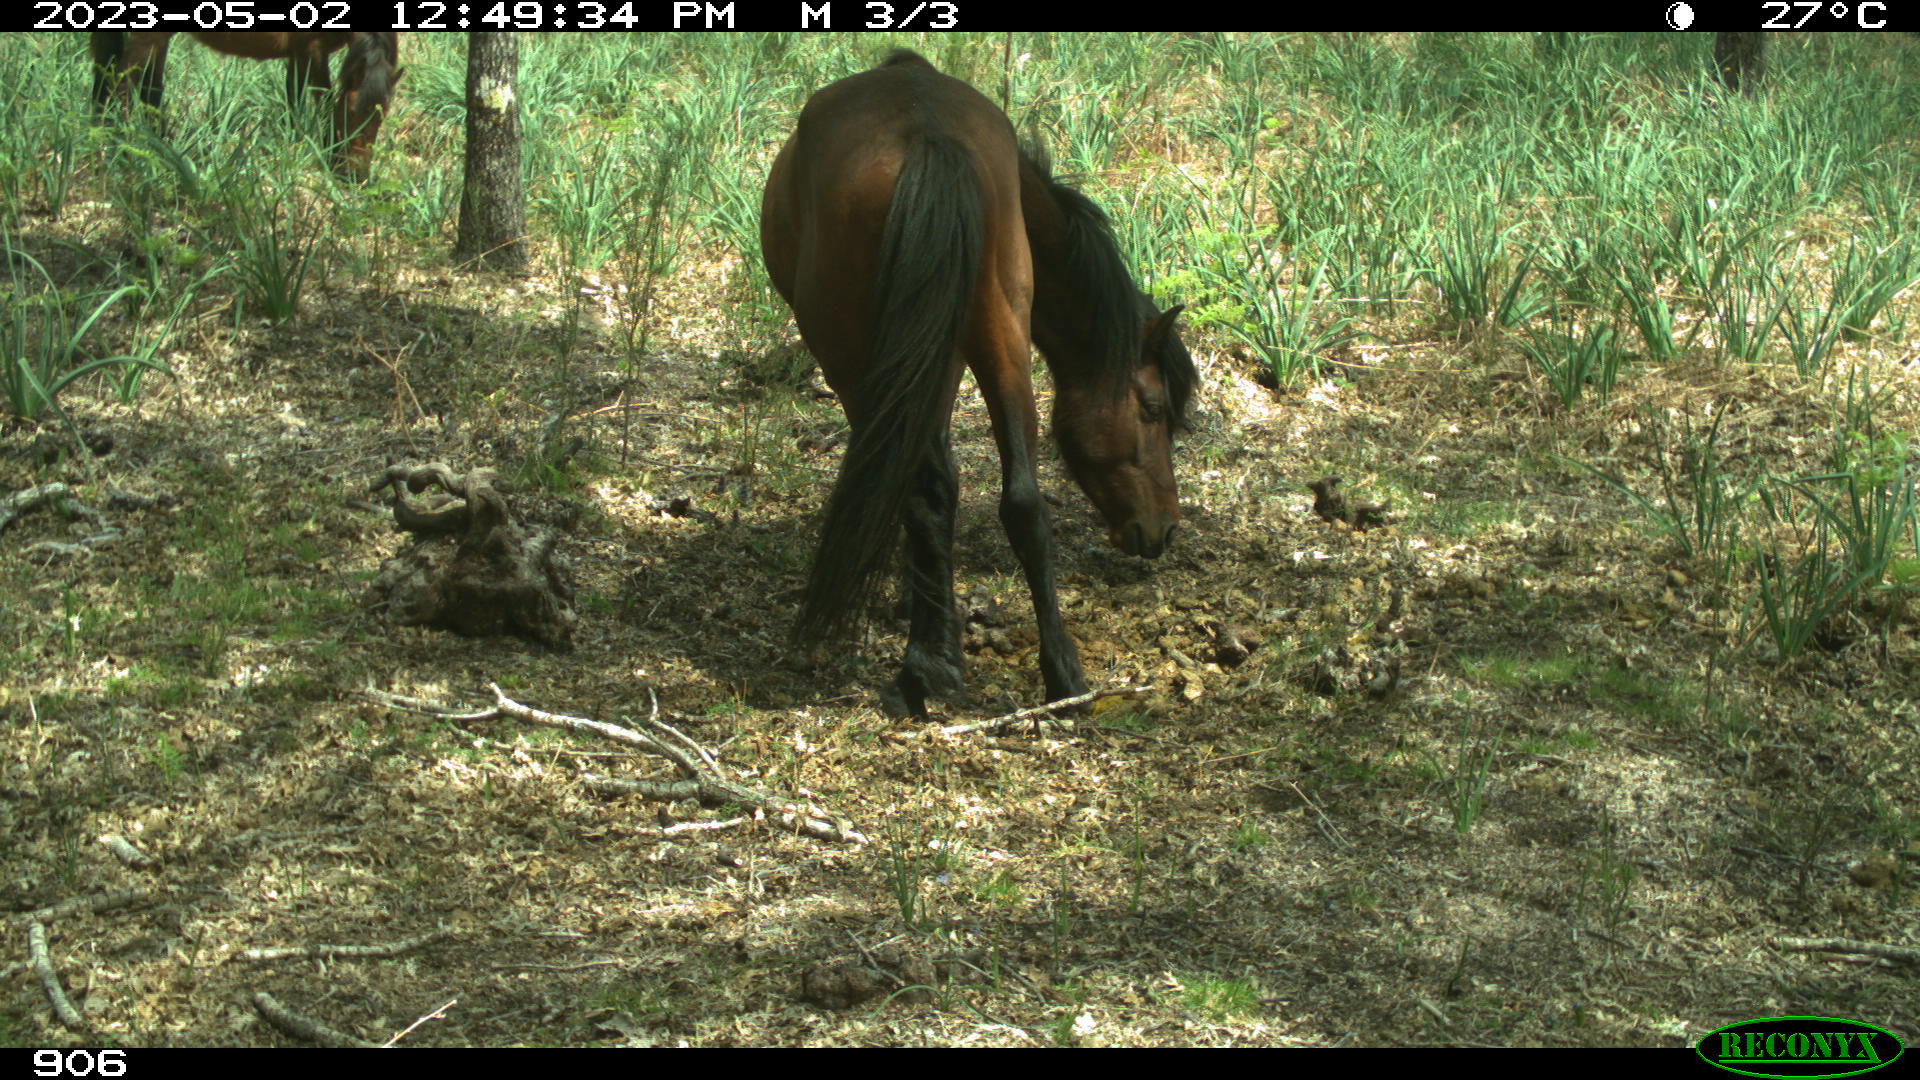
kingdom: Animalia
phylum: Chordata
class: Mammalia
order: Perissodactyla
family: Equidae
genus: Equus
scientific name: Equus caballus
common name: Horse
